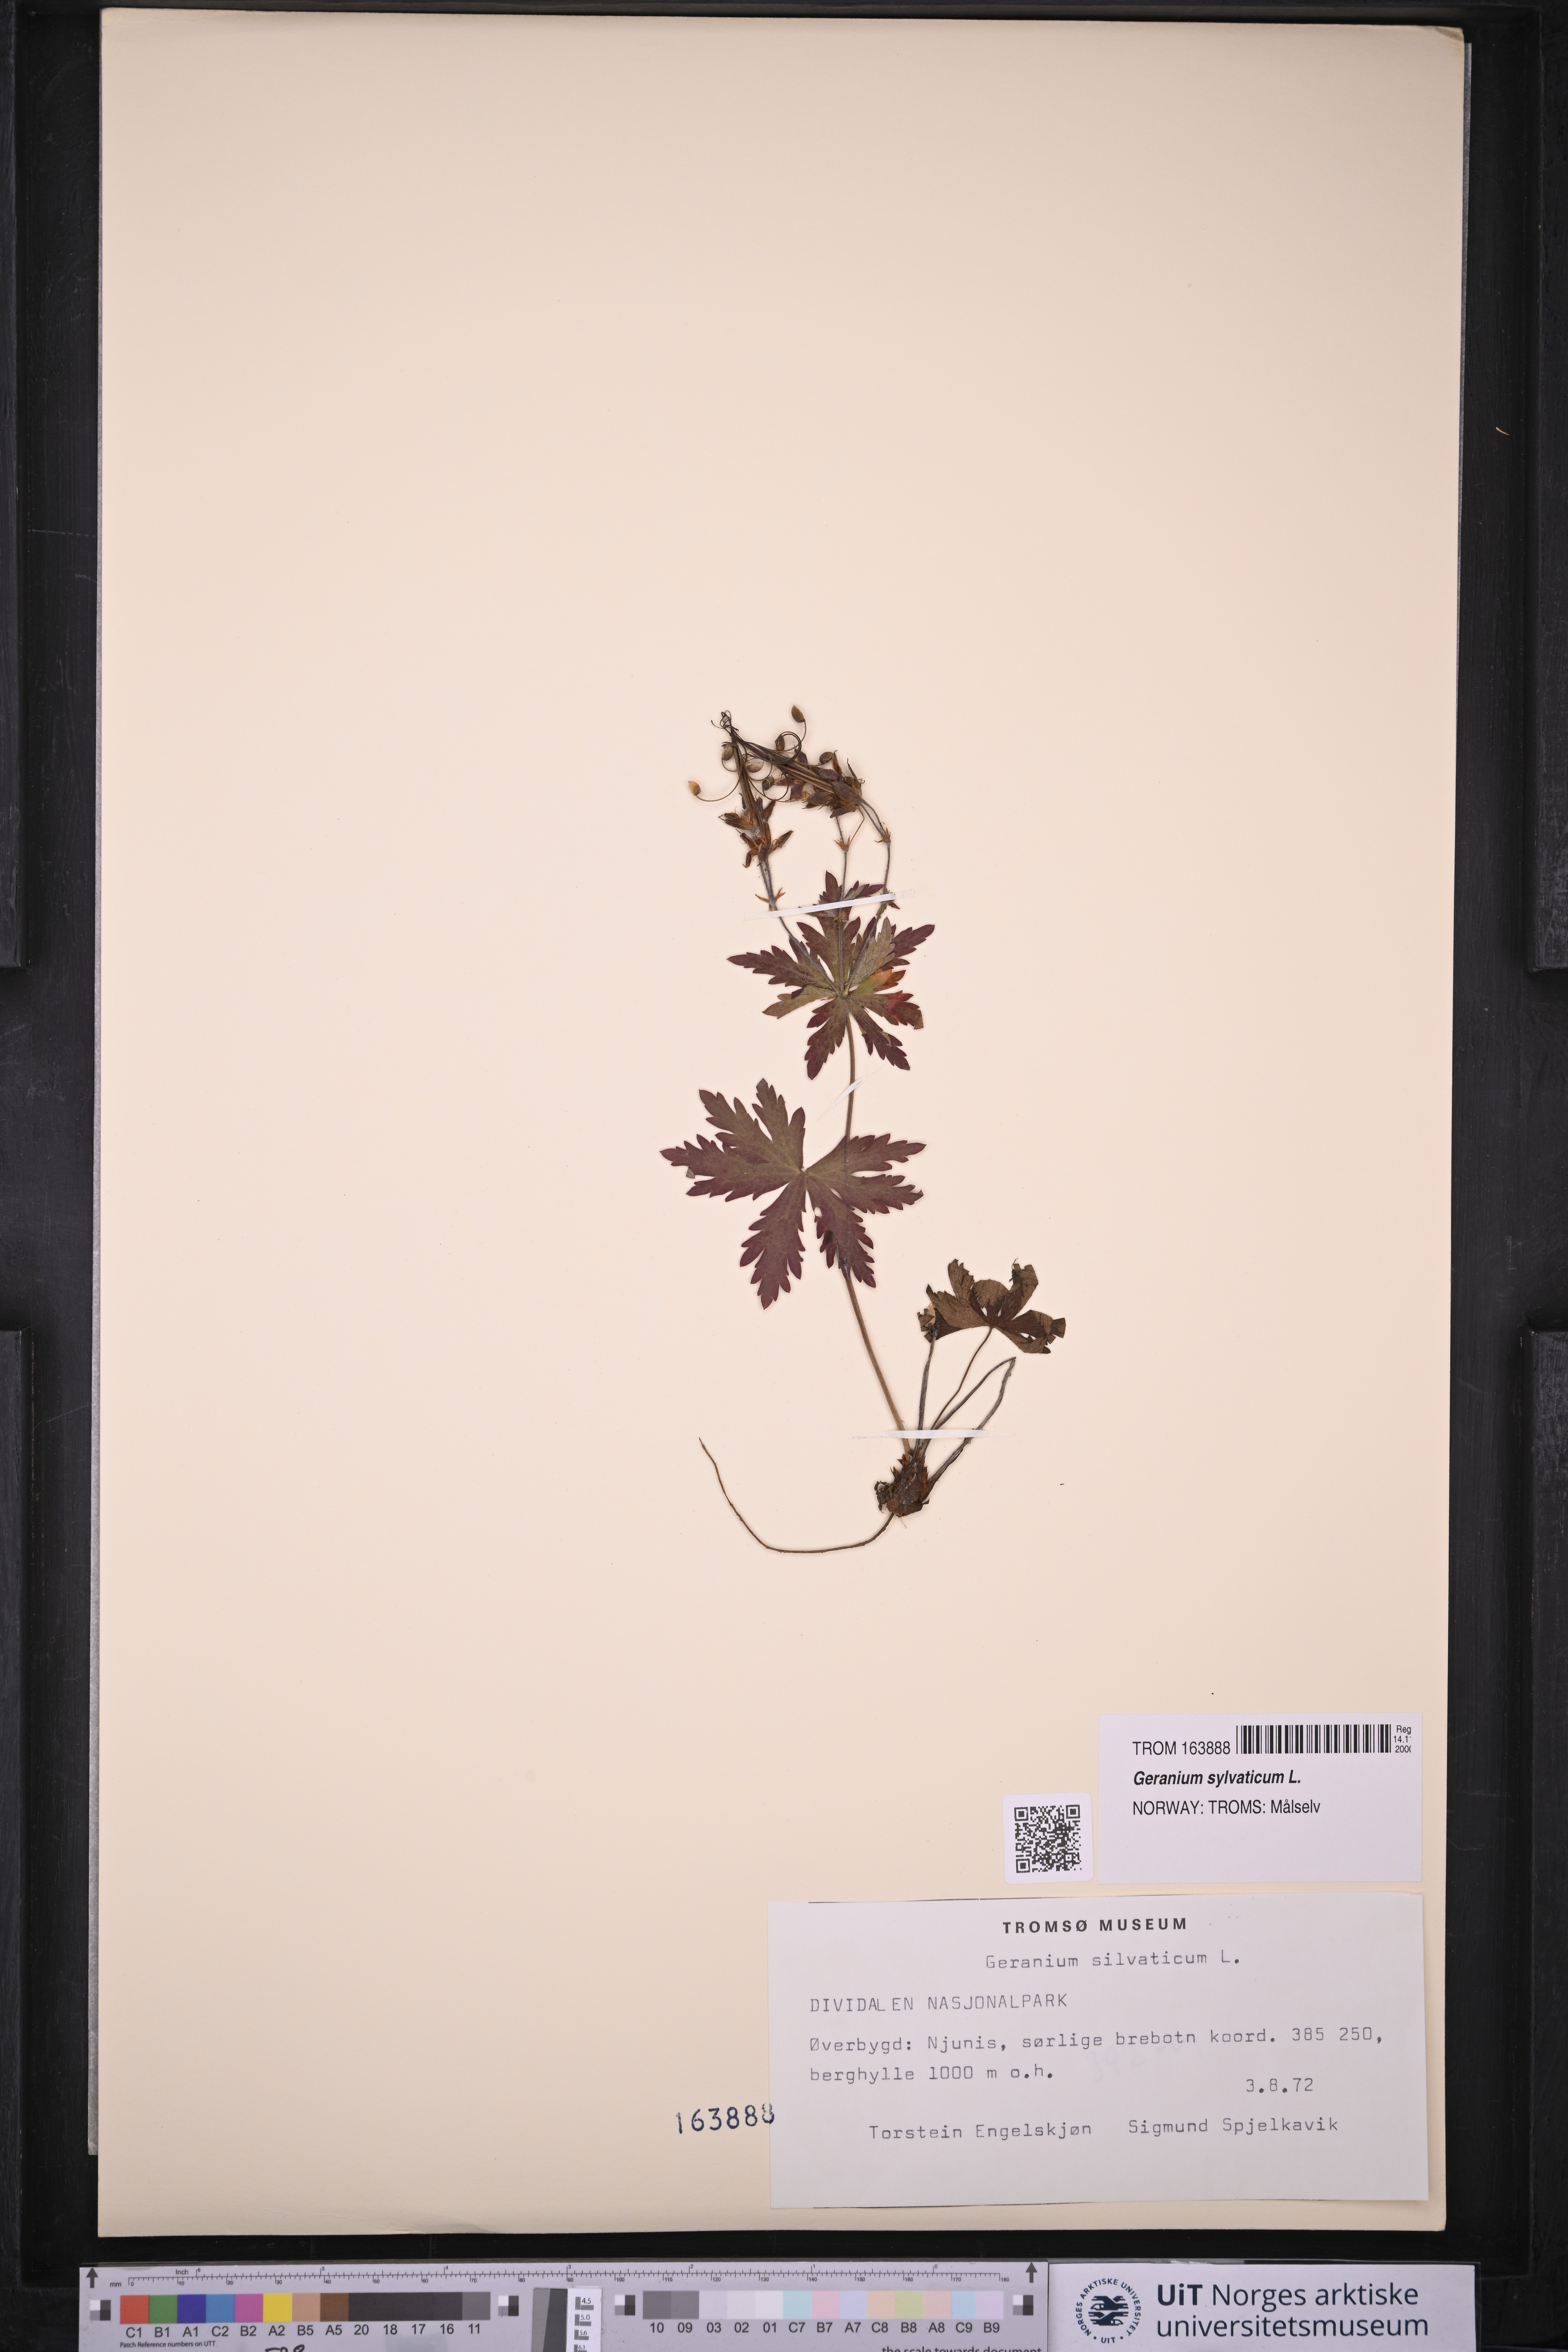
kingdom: Plantae
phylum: Tracheophyta
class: Magnoliopsida
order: Geraniales
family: Geraniaceae
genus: Geranium
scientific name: Geranium sylvaticum
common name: Wood crane's-bill
